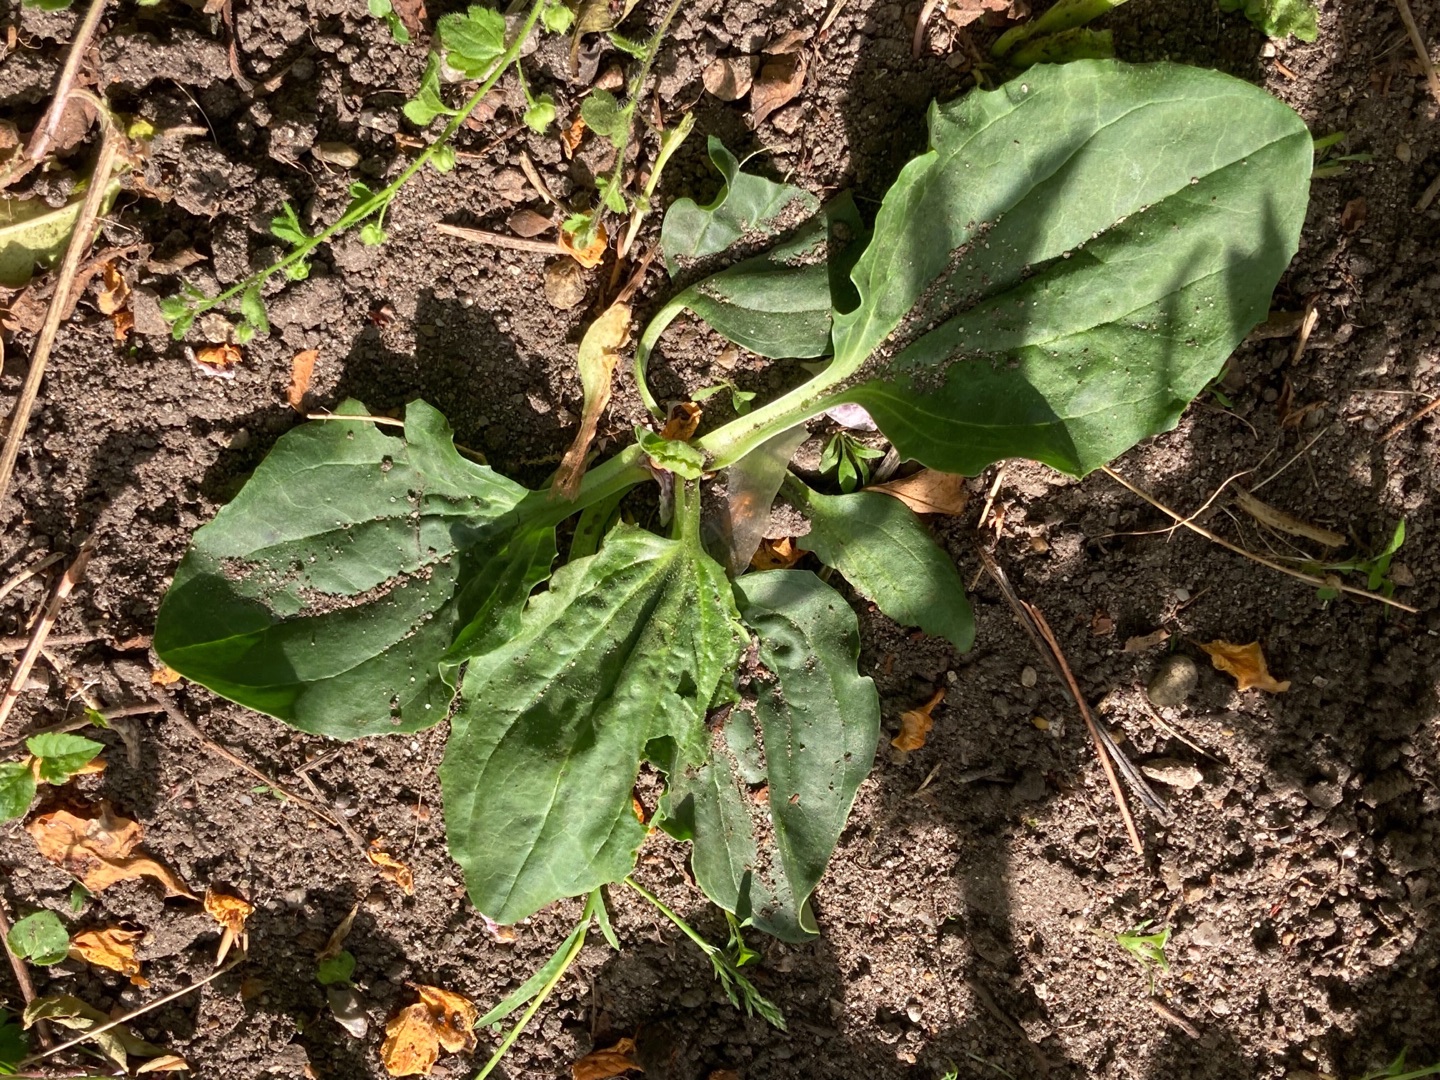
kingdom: Plantae
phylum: Tracheophyta
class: Magnoliopsida
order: Lamiales
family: Plantaginaceae
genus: Plantago
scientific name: Plantago major
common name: Glat vejbred
